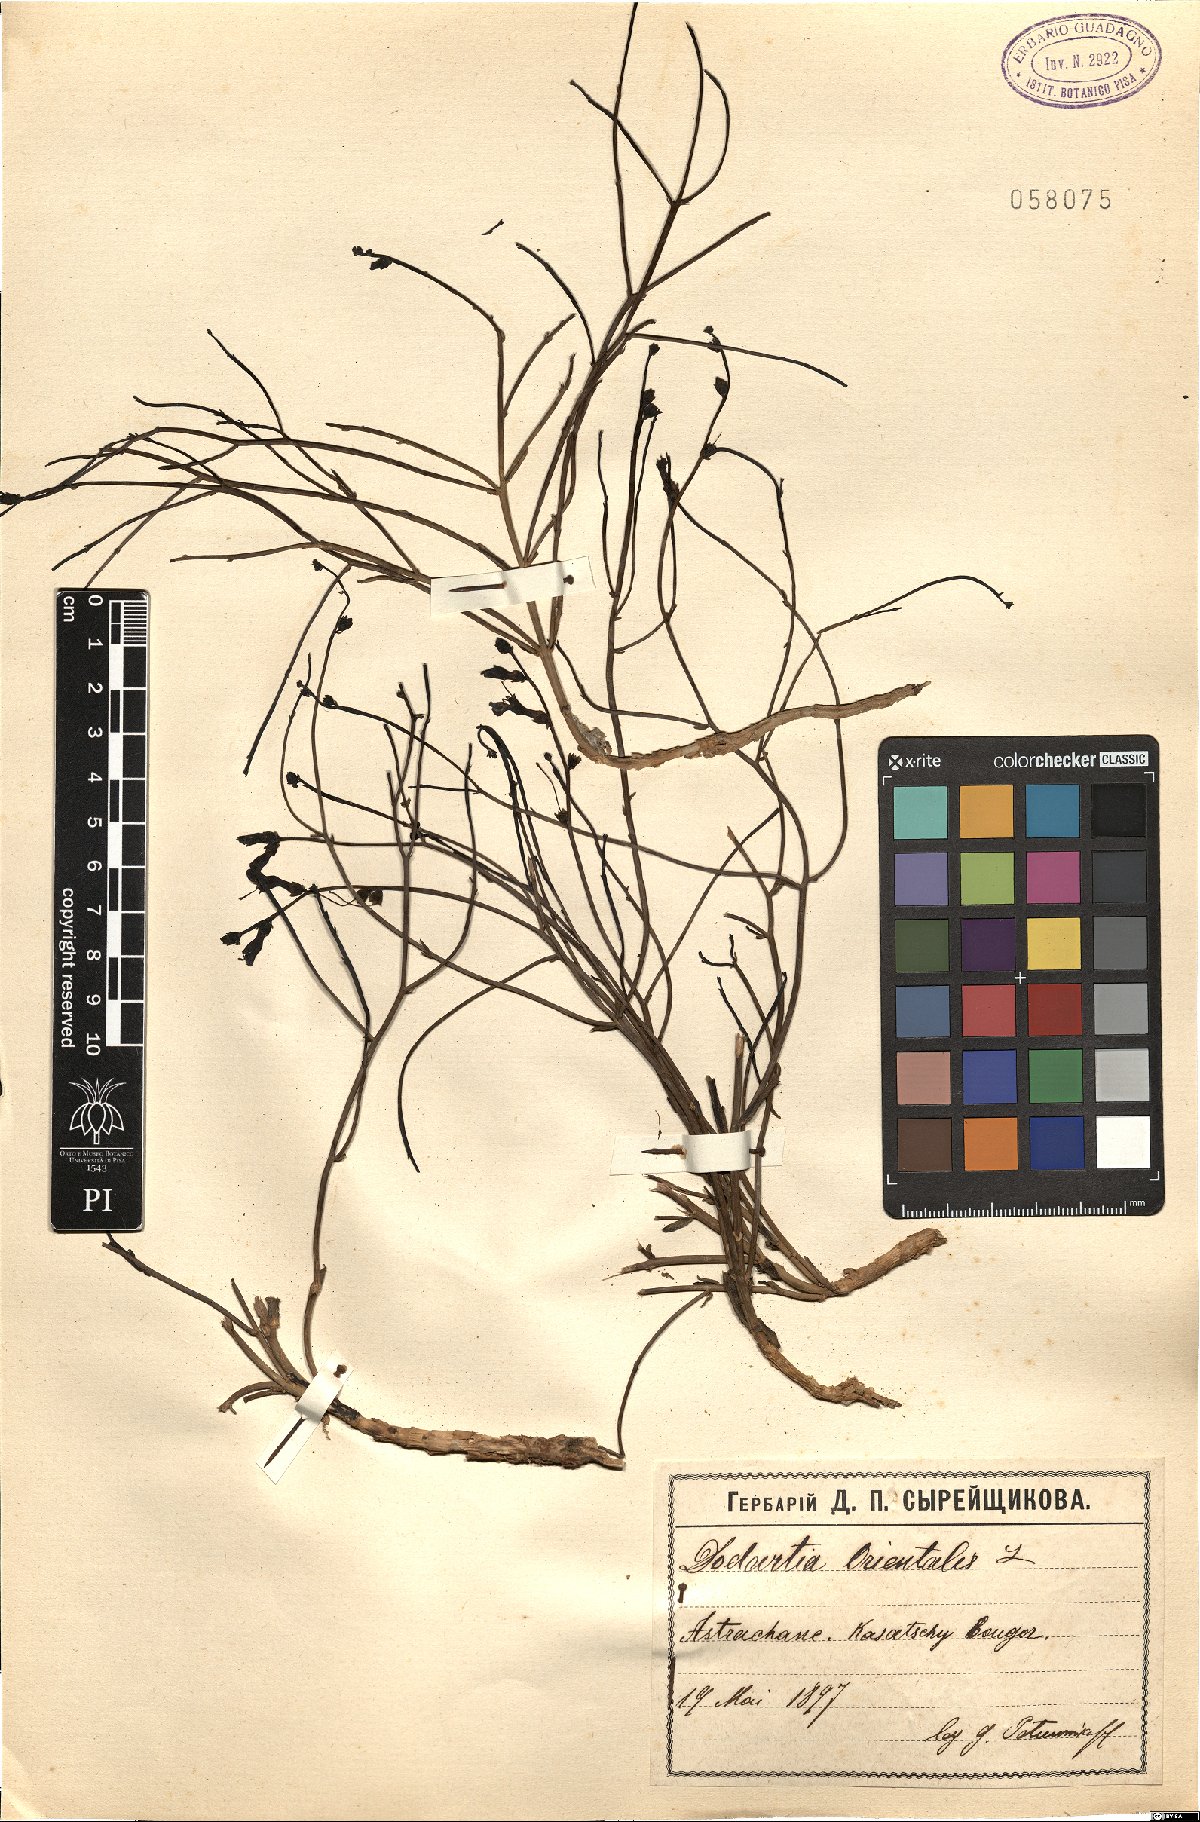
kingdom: Plantae
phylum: Tracheophyta
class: Magnoliopsida
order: Lamiales
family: Mazaceae
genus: Dodartia
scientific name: Dodartia orientalis
